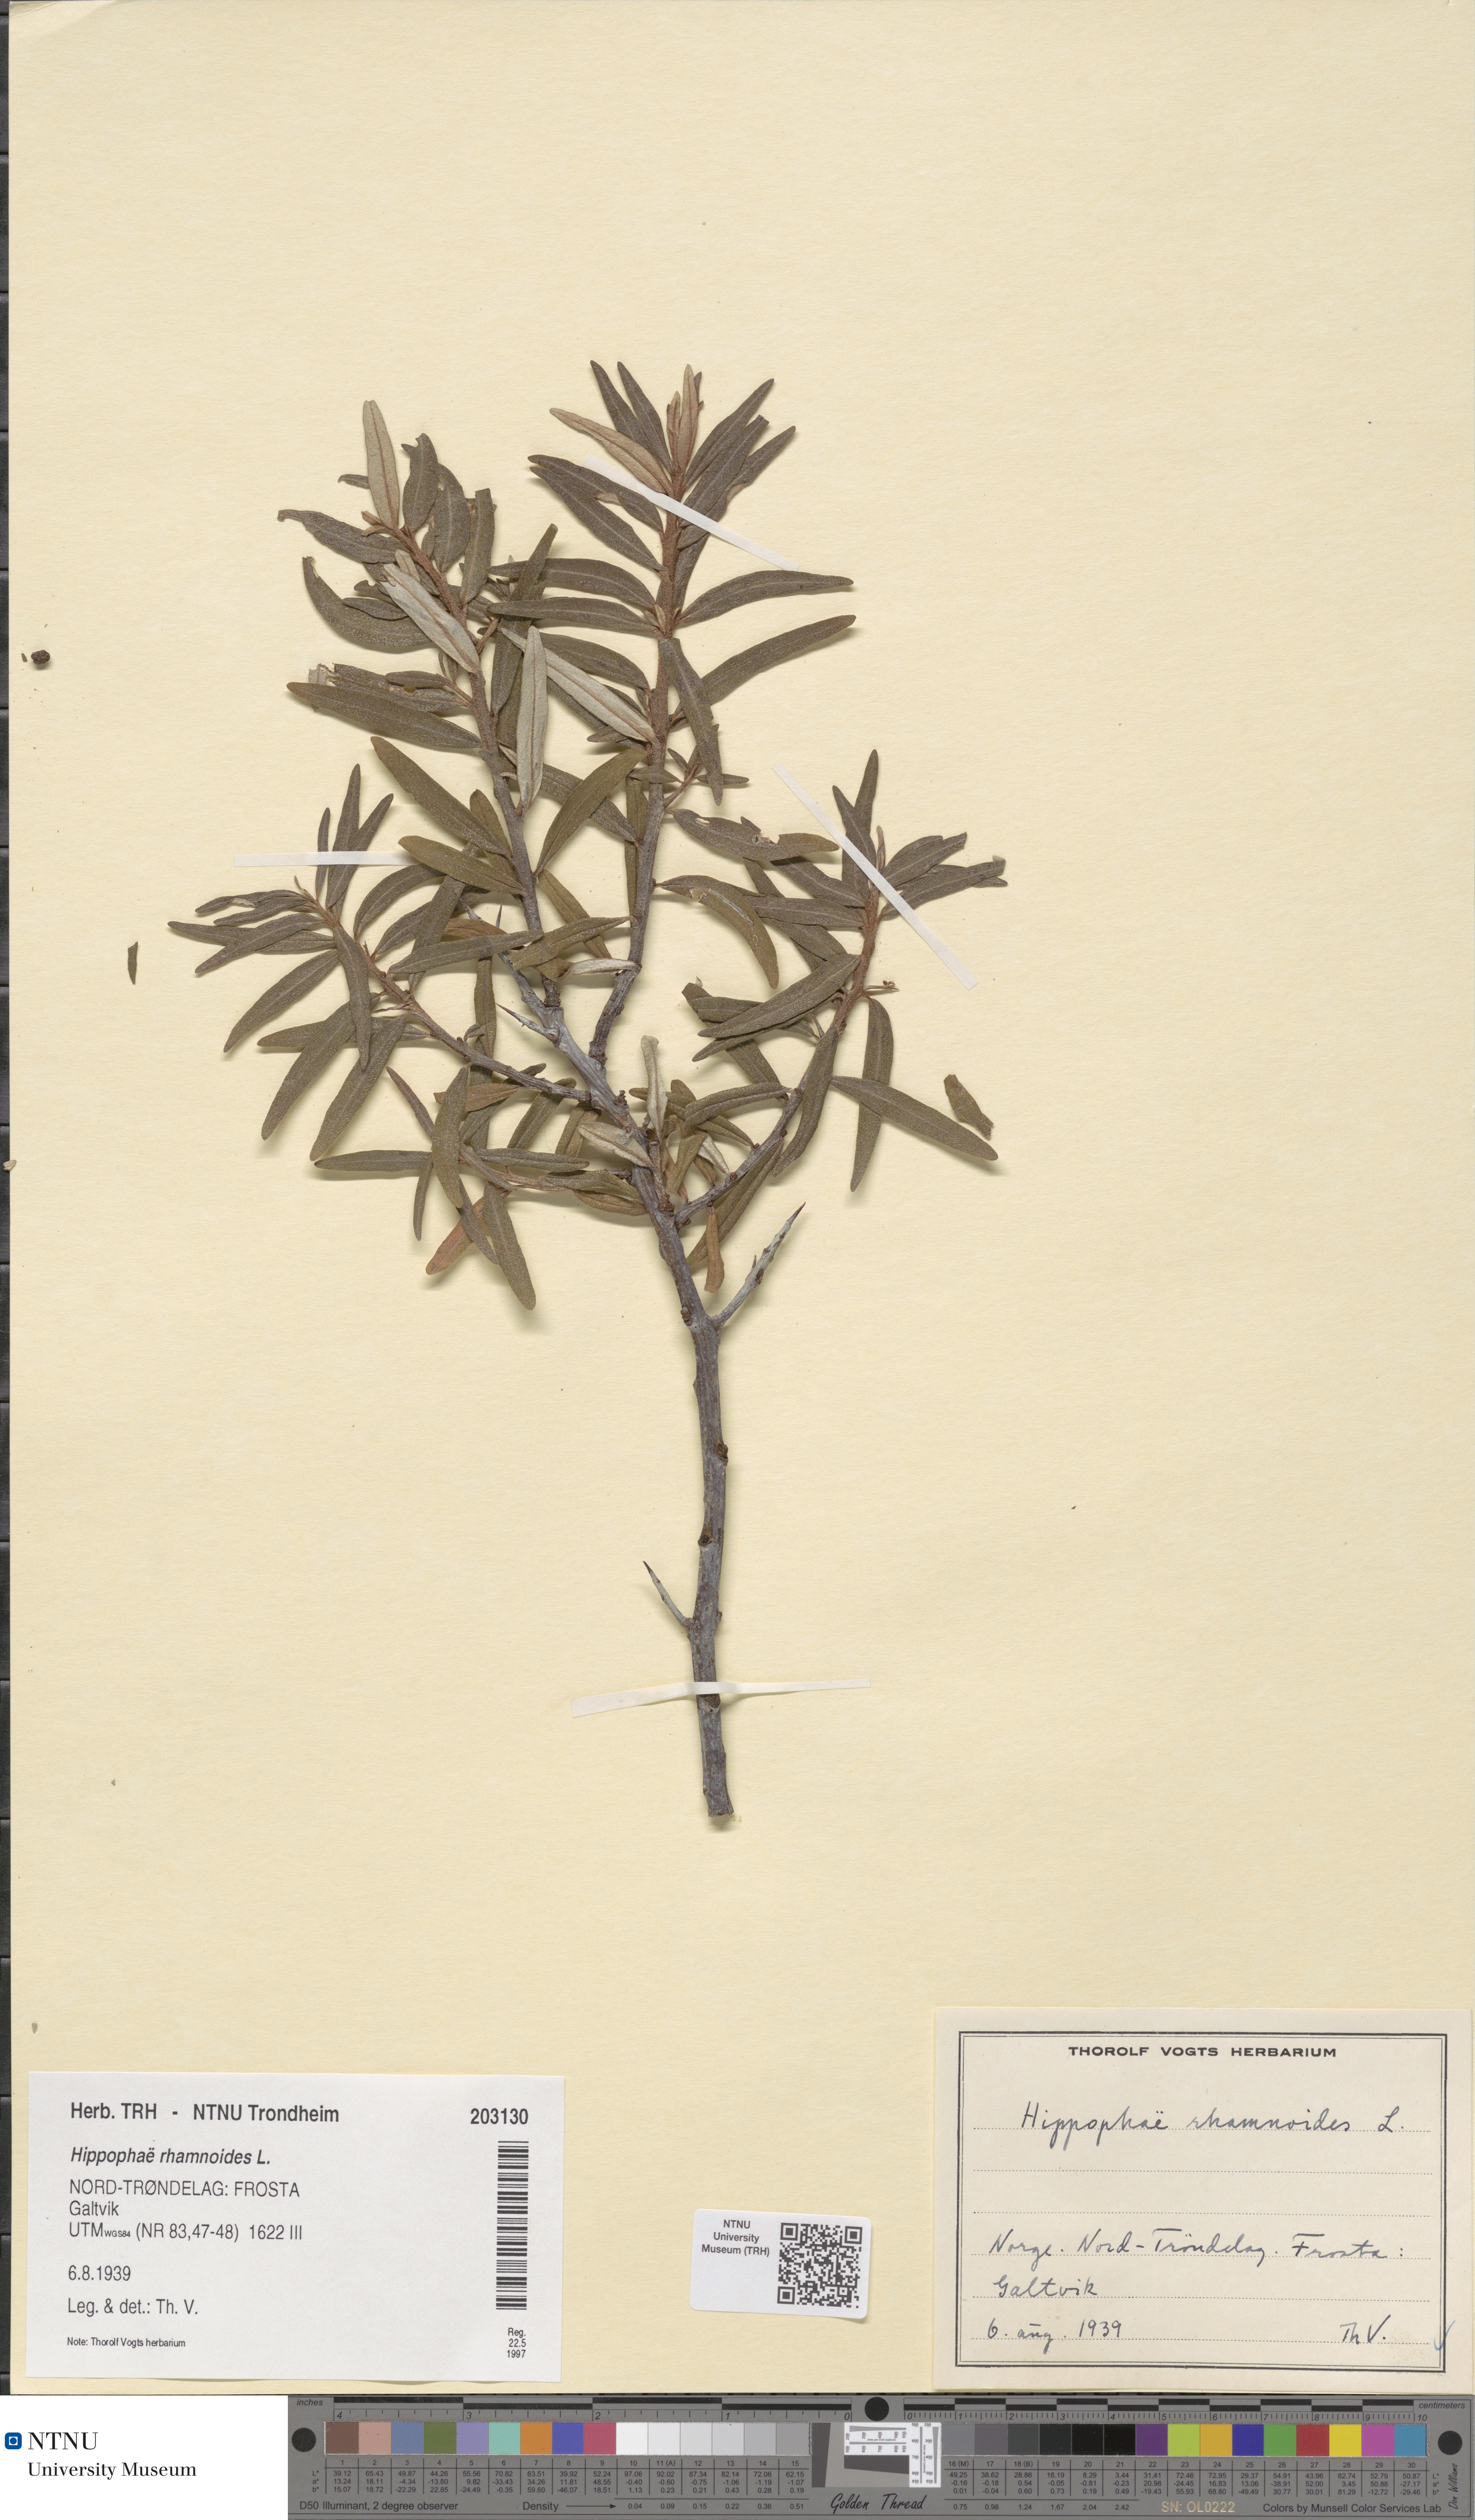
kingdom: Plantae
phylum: Tracheophyta
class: Magnoliopsida
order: Rosales
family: Elaeagnaceae
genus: Hippophae
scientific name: Hippophae rhamnoides
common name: Sea-buckthorn
